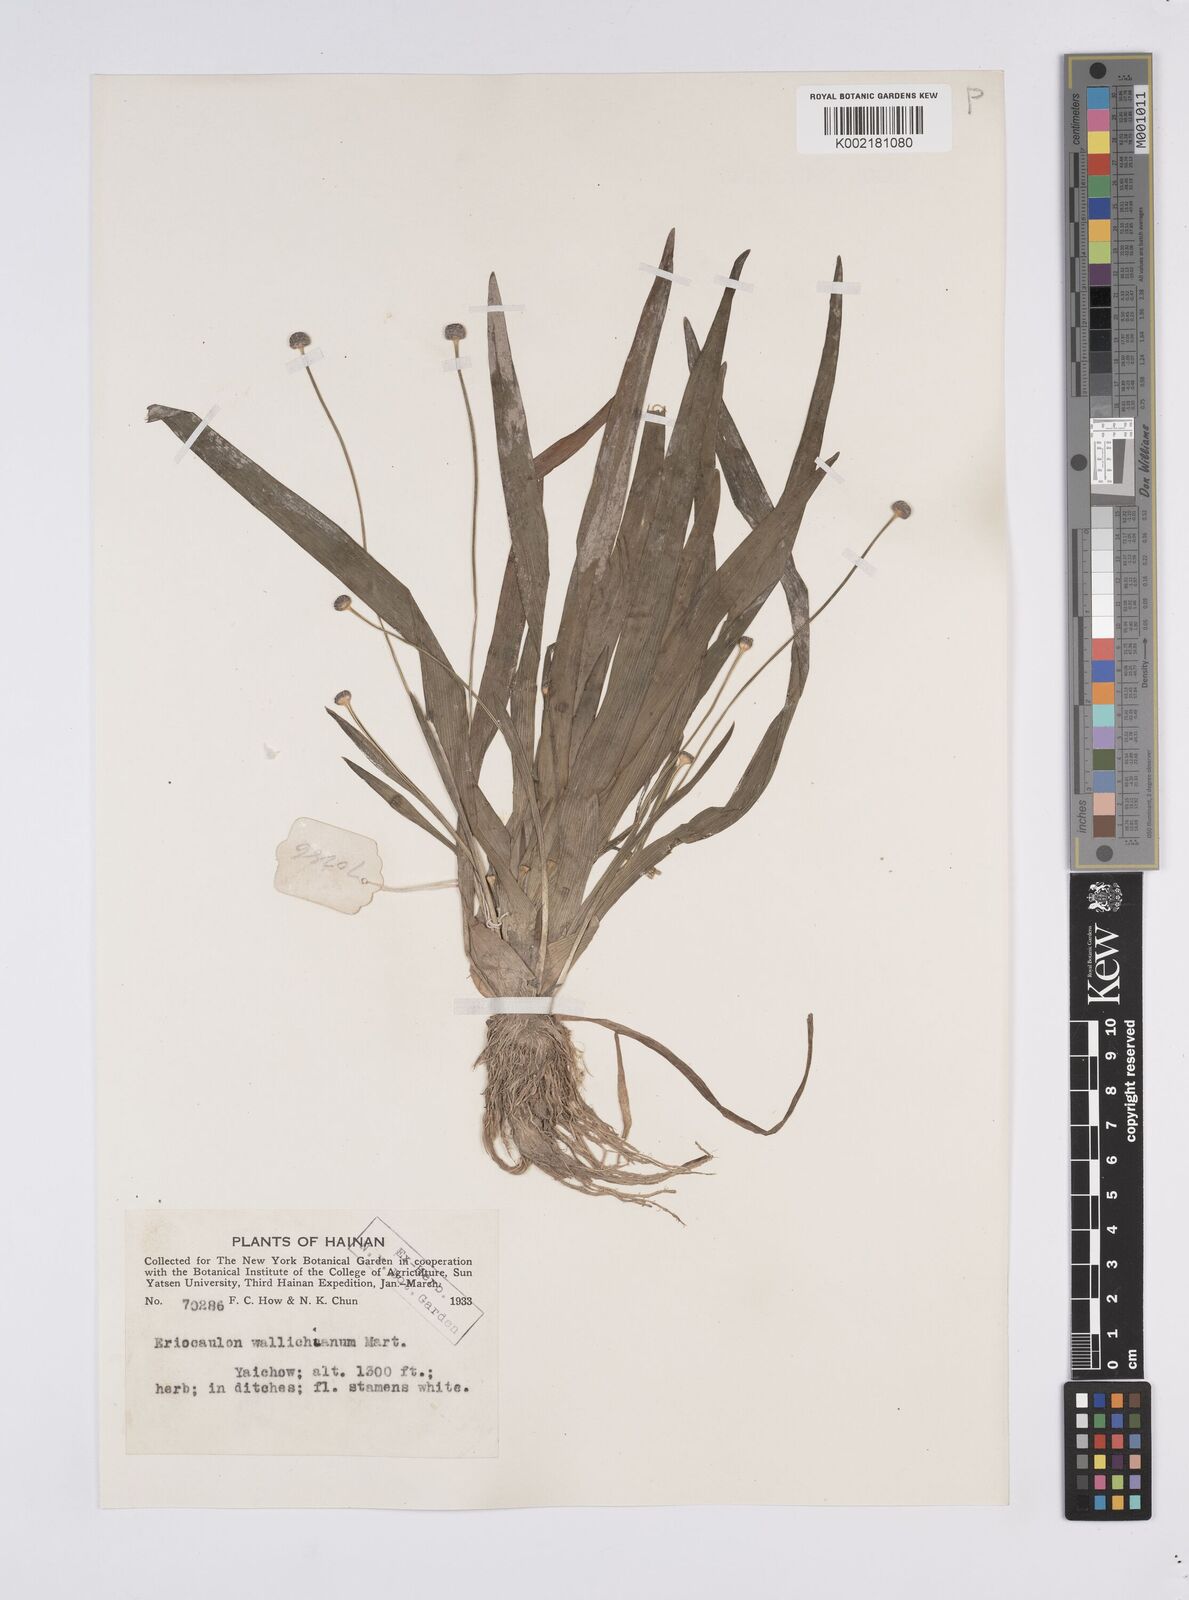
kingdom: Plantae
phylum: Tracheophyta
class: Liliopsida
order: Poales
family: Eriocaulaceae
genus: Eriocaulon
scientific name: Eriocaulon sexangulare
